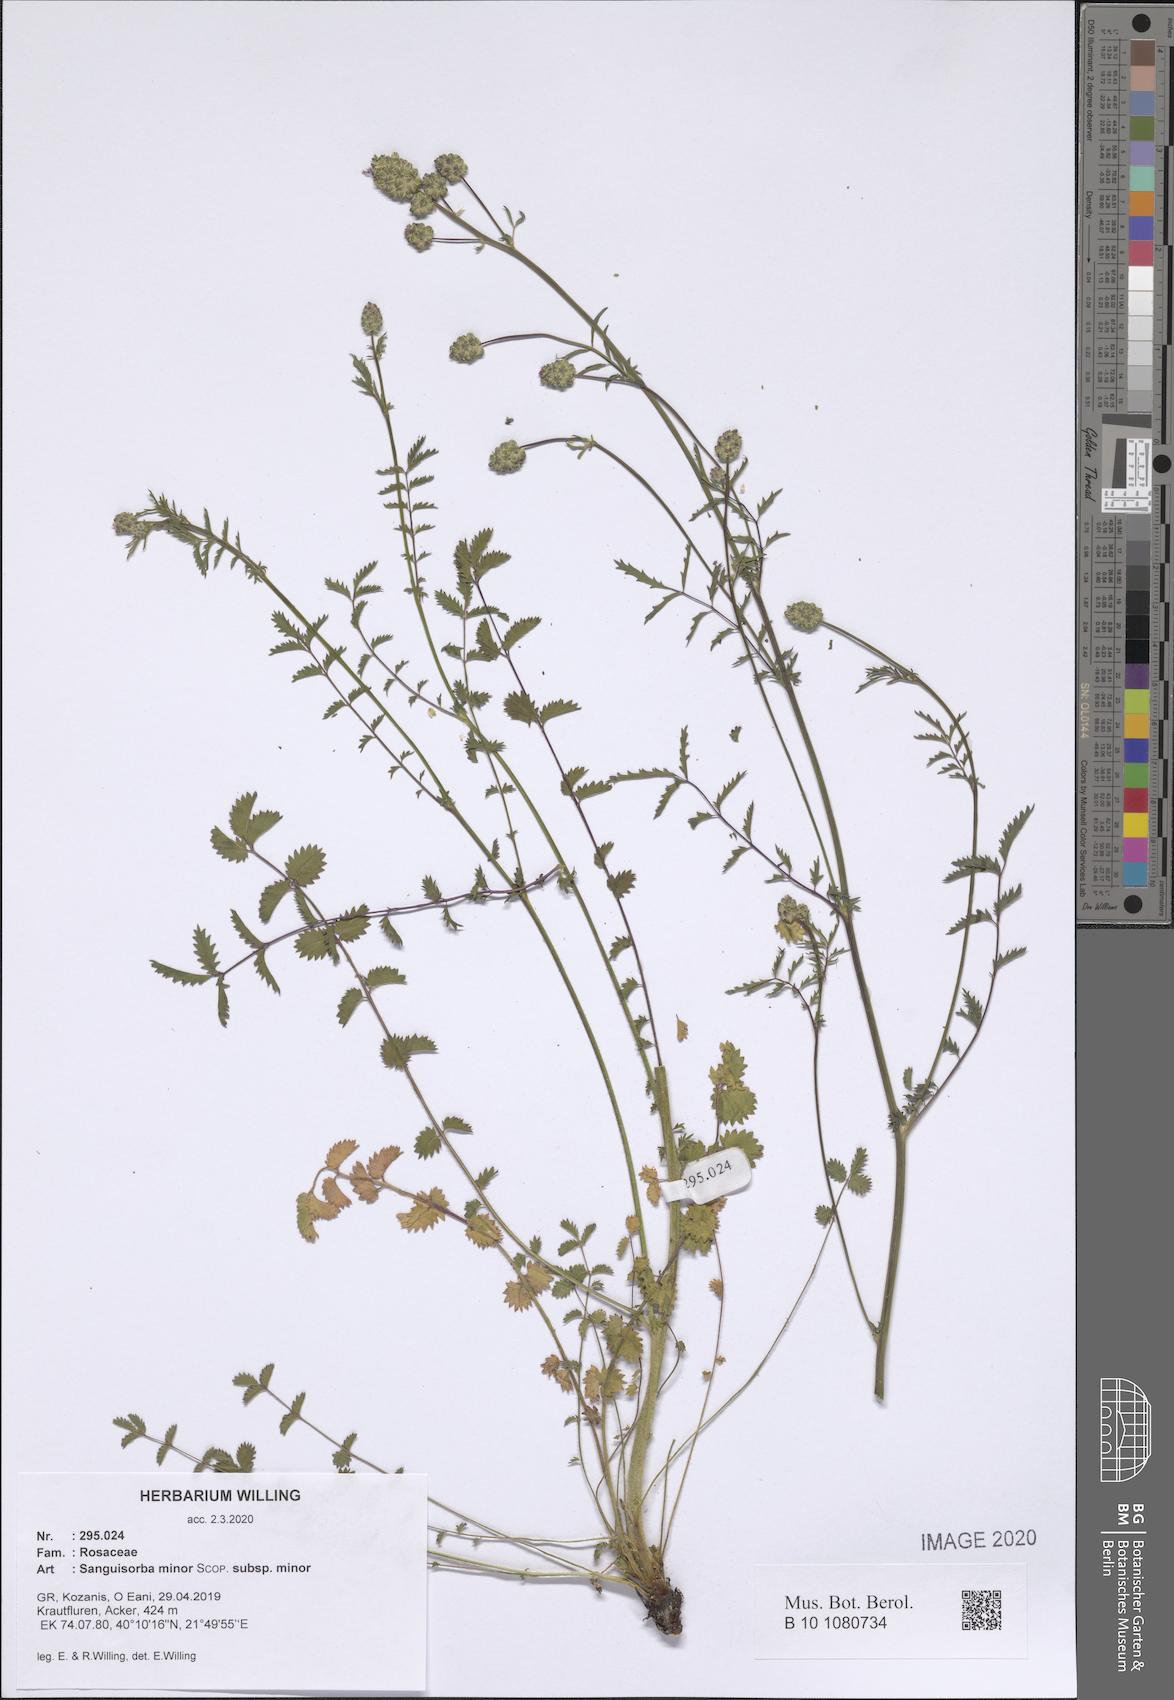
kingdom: Plantae
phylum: Tracheophyta
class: Magnoliopsida
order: Rosales
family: Rosaceae
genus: Poterium
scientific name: Poterium sanguisorba
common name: Salad burnet
